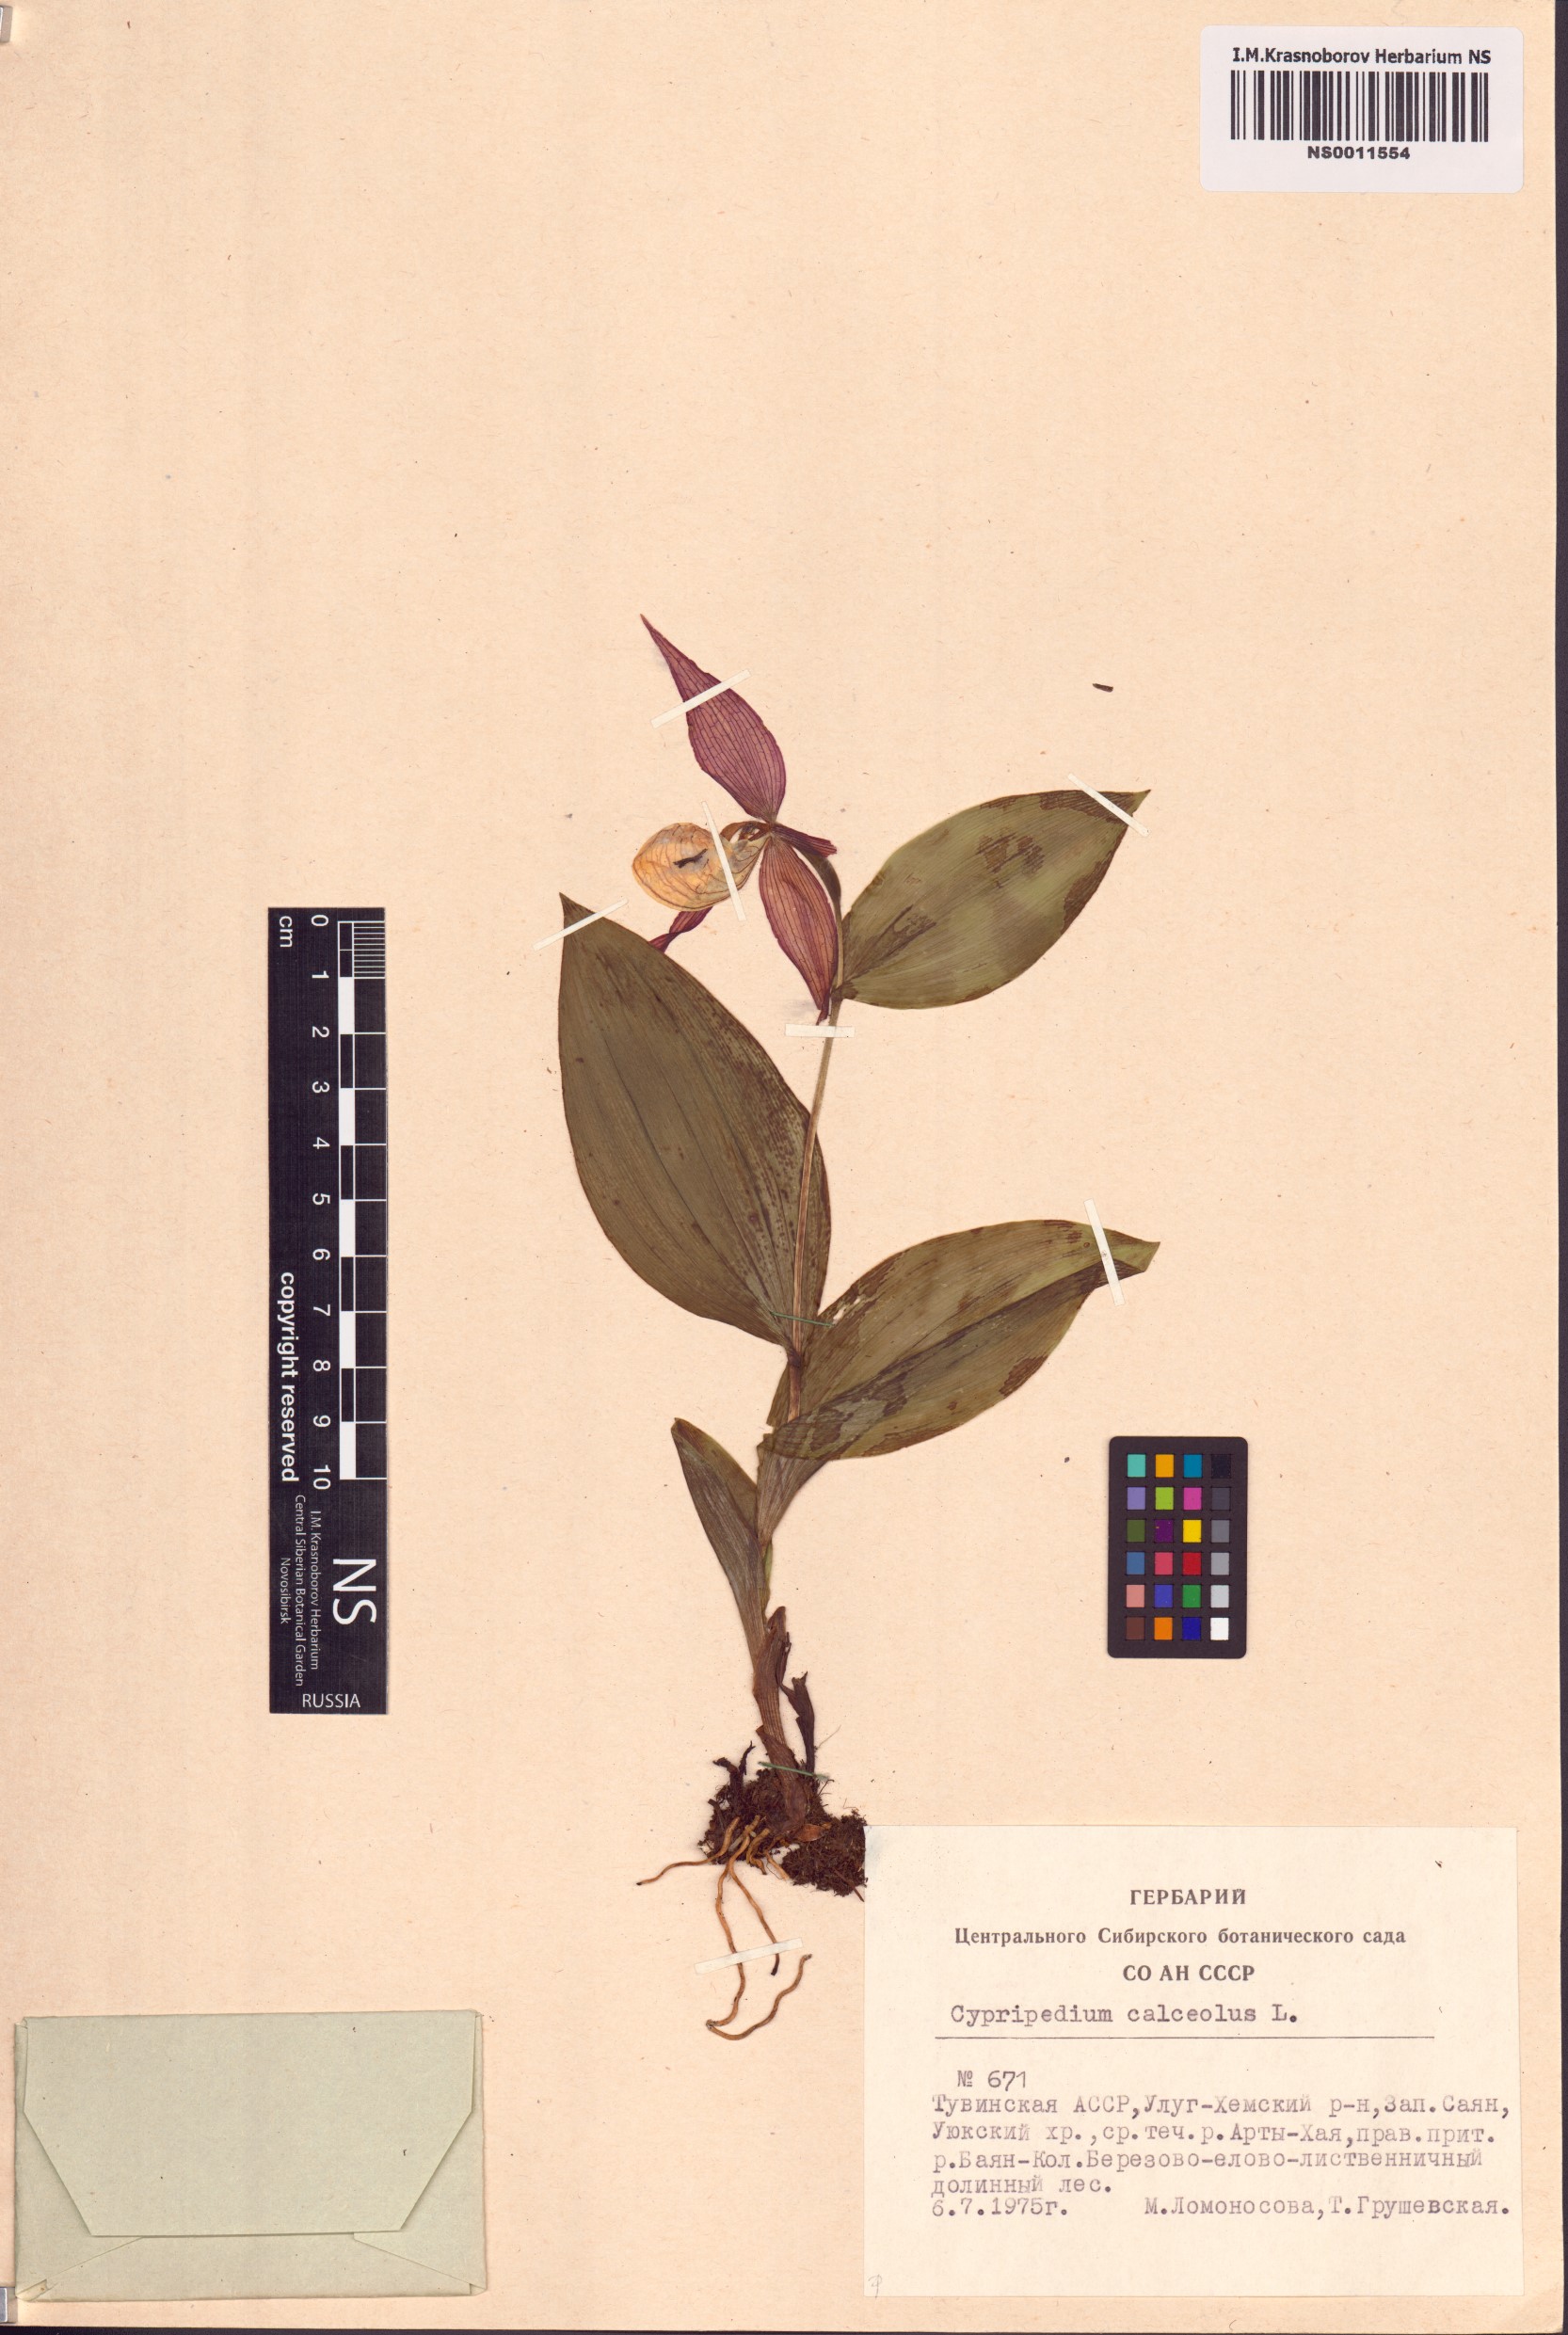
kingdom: Plantae
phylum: Tracheophyta
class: Liliopsida
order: Asparagales
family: Orchidaceae
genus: Cypripedium
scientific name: Cypripedium calceolus
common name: Lady's-slipper
